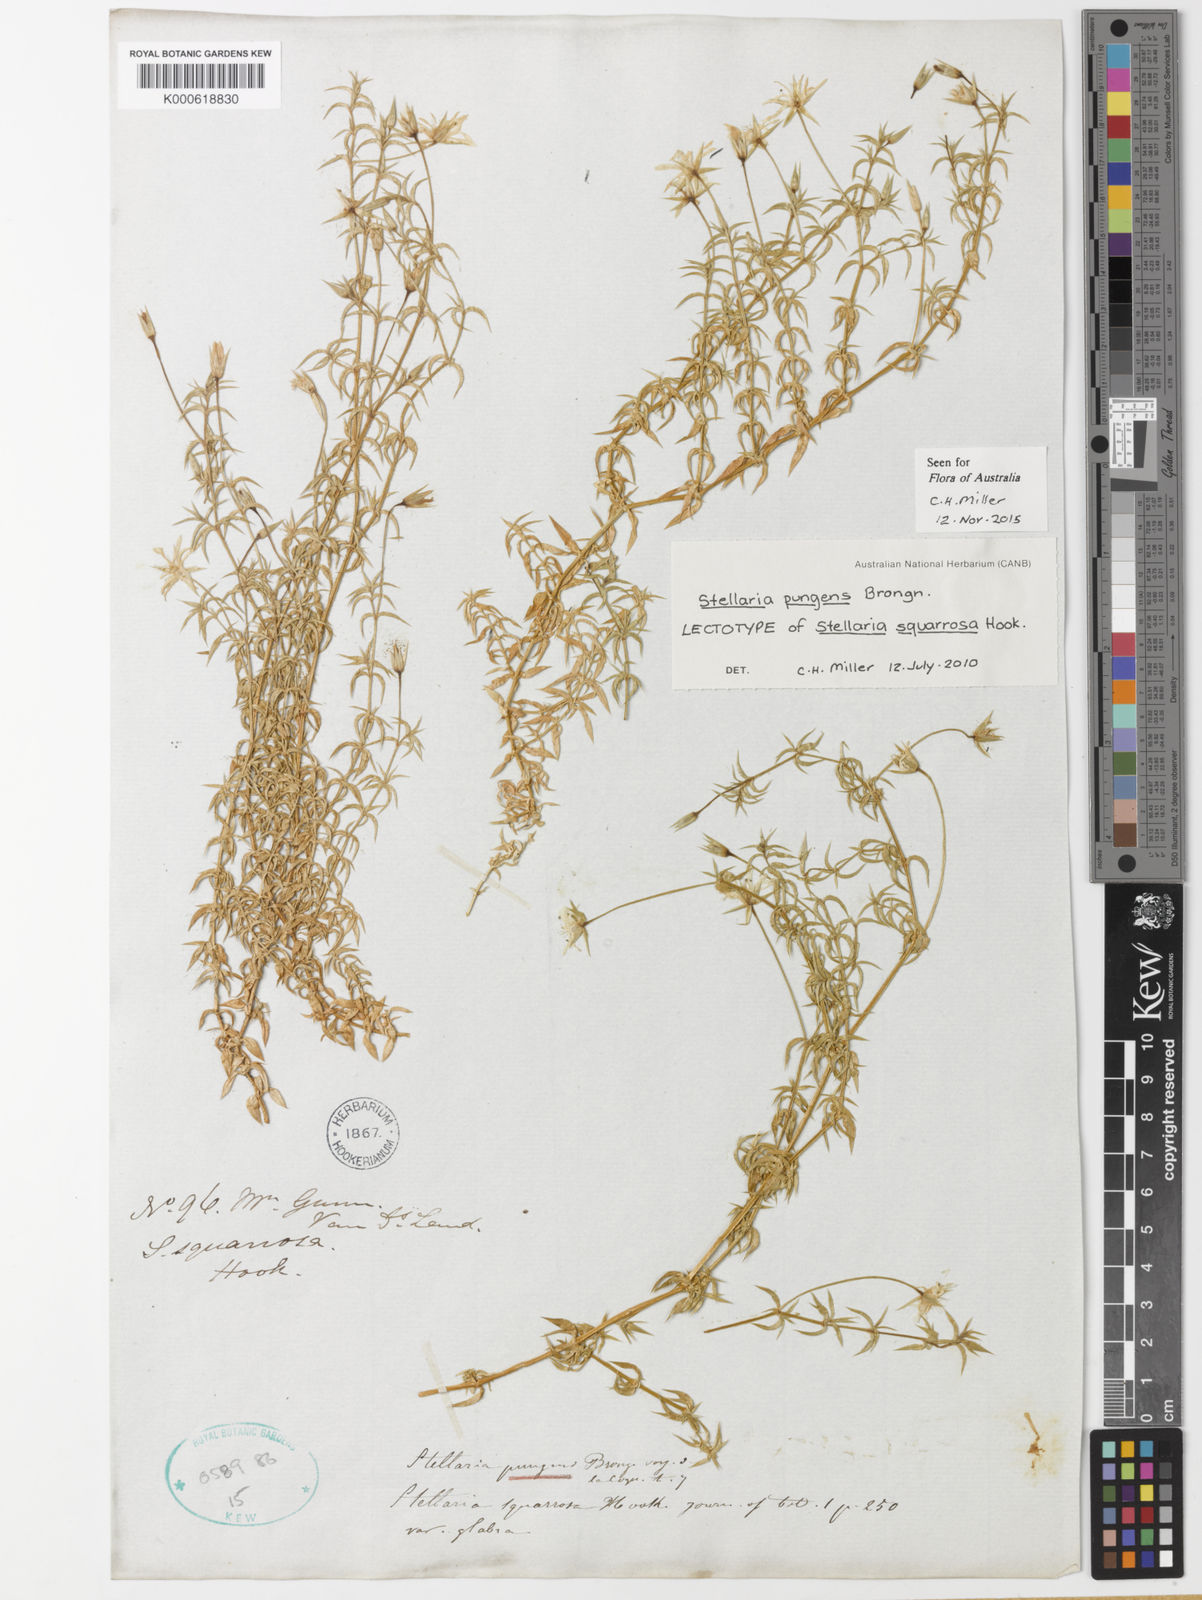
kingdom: Plantae
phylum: Tracheophyta
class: Magnoliopsida
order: Caryophyllales
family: Caryophyllaceae
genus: Stellaria
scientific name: Stellaria pungens
